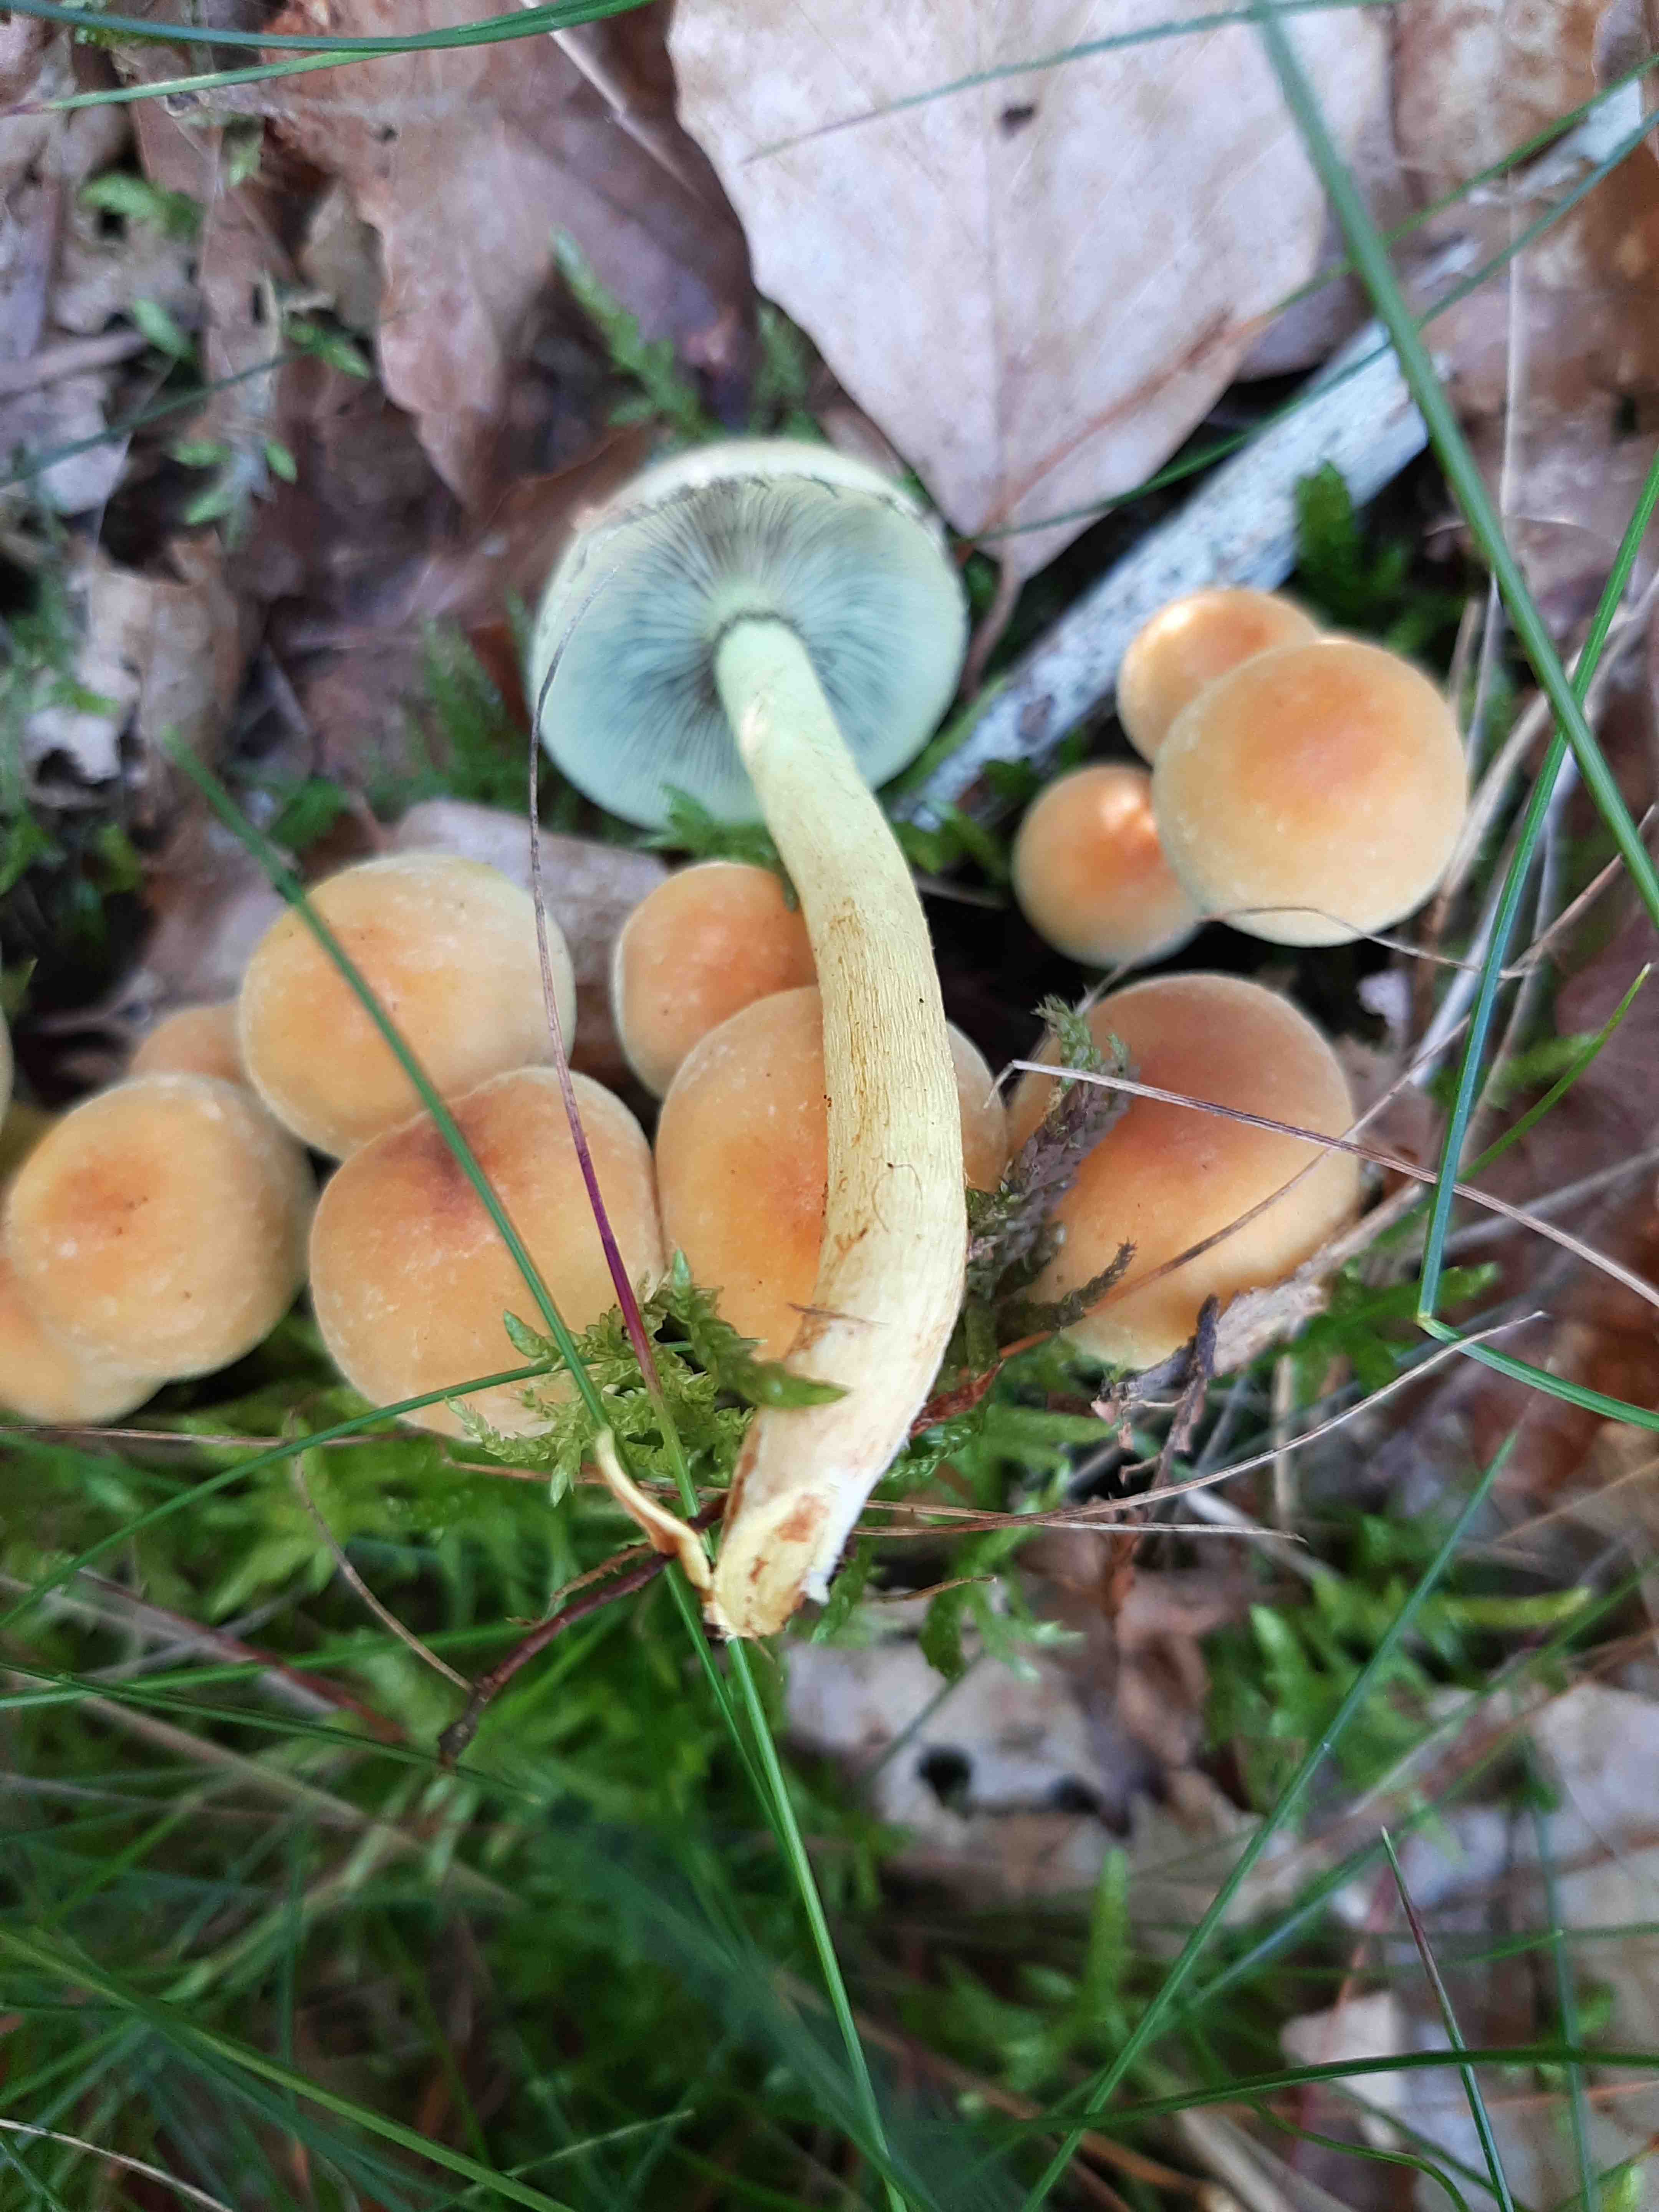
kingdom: Fungi
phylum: Basidiomycota
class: Agaricomycetes
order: Agaricales
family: Strophariaceae
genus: Hypholoma
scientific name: Hypholoma fasciculare
